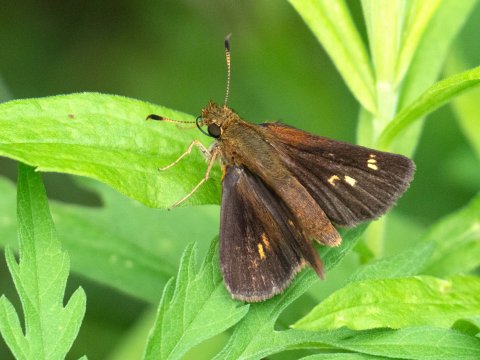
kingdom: Animalia
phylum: Arthropoda
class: Insecta
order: Lepidoptera
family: Hesperiidae
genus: Poanes
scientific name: Poanes massasoit
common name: Mulberry Wing
